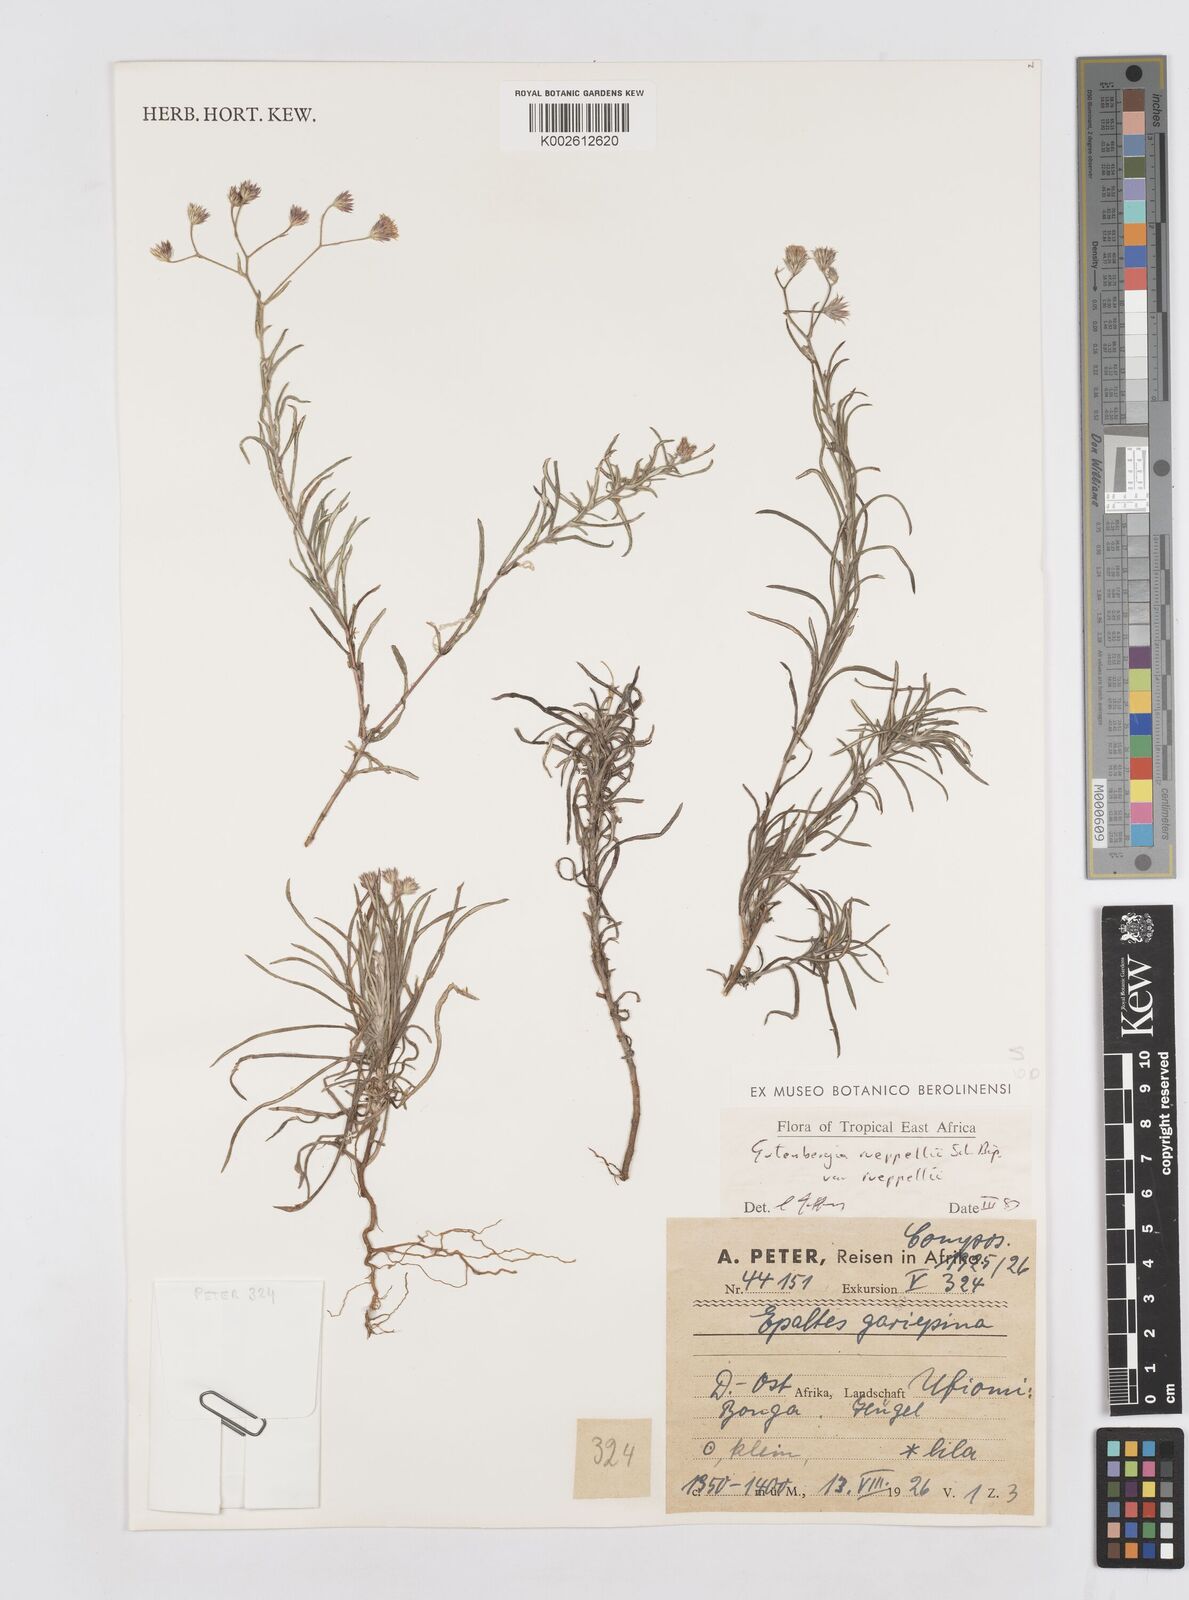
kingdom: Plantae
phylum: Tracheophyta
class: Magnoliopsida
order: Asterales
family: Asteraceae
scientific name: Asteraceae
